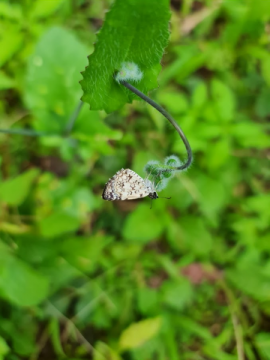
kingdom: Animalia
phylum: Arthropoda
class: Insecta
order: Lepidoptera
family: Lycaenidae
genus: Strymon
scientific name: Strymon astiocha
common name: Gray-spotted Scrub-Hairstreak
